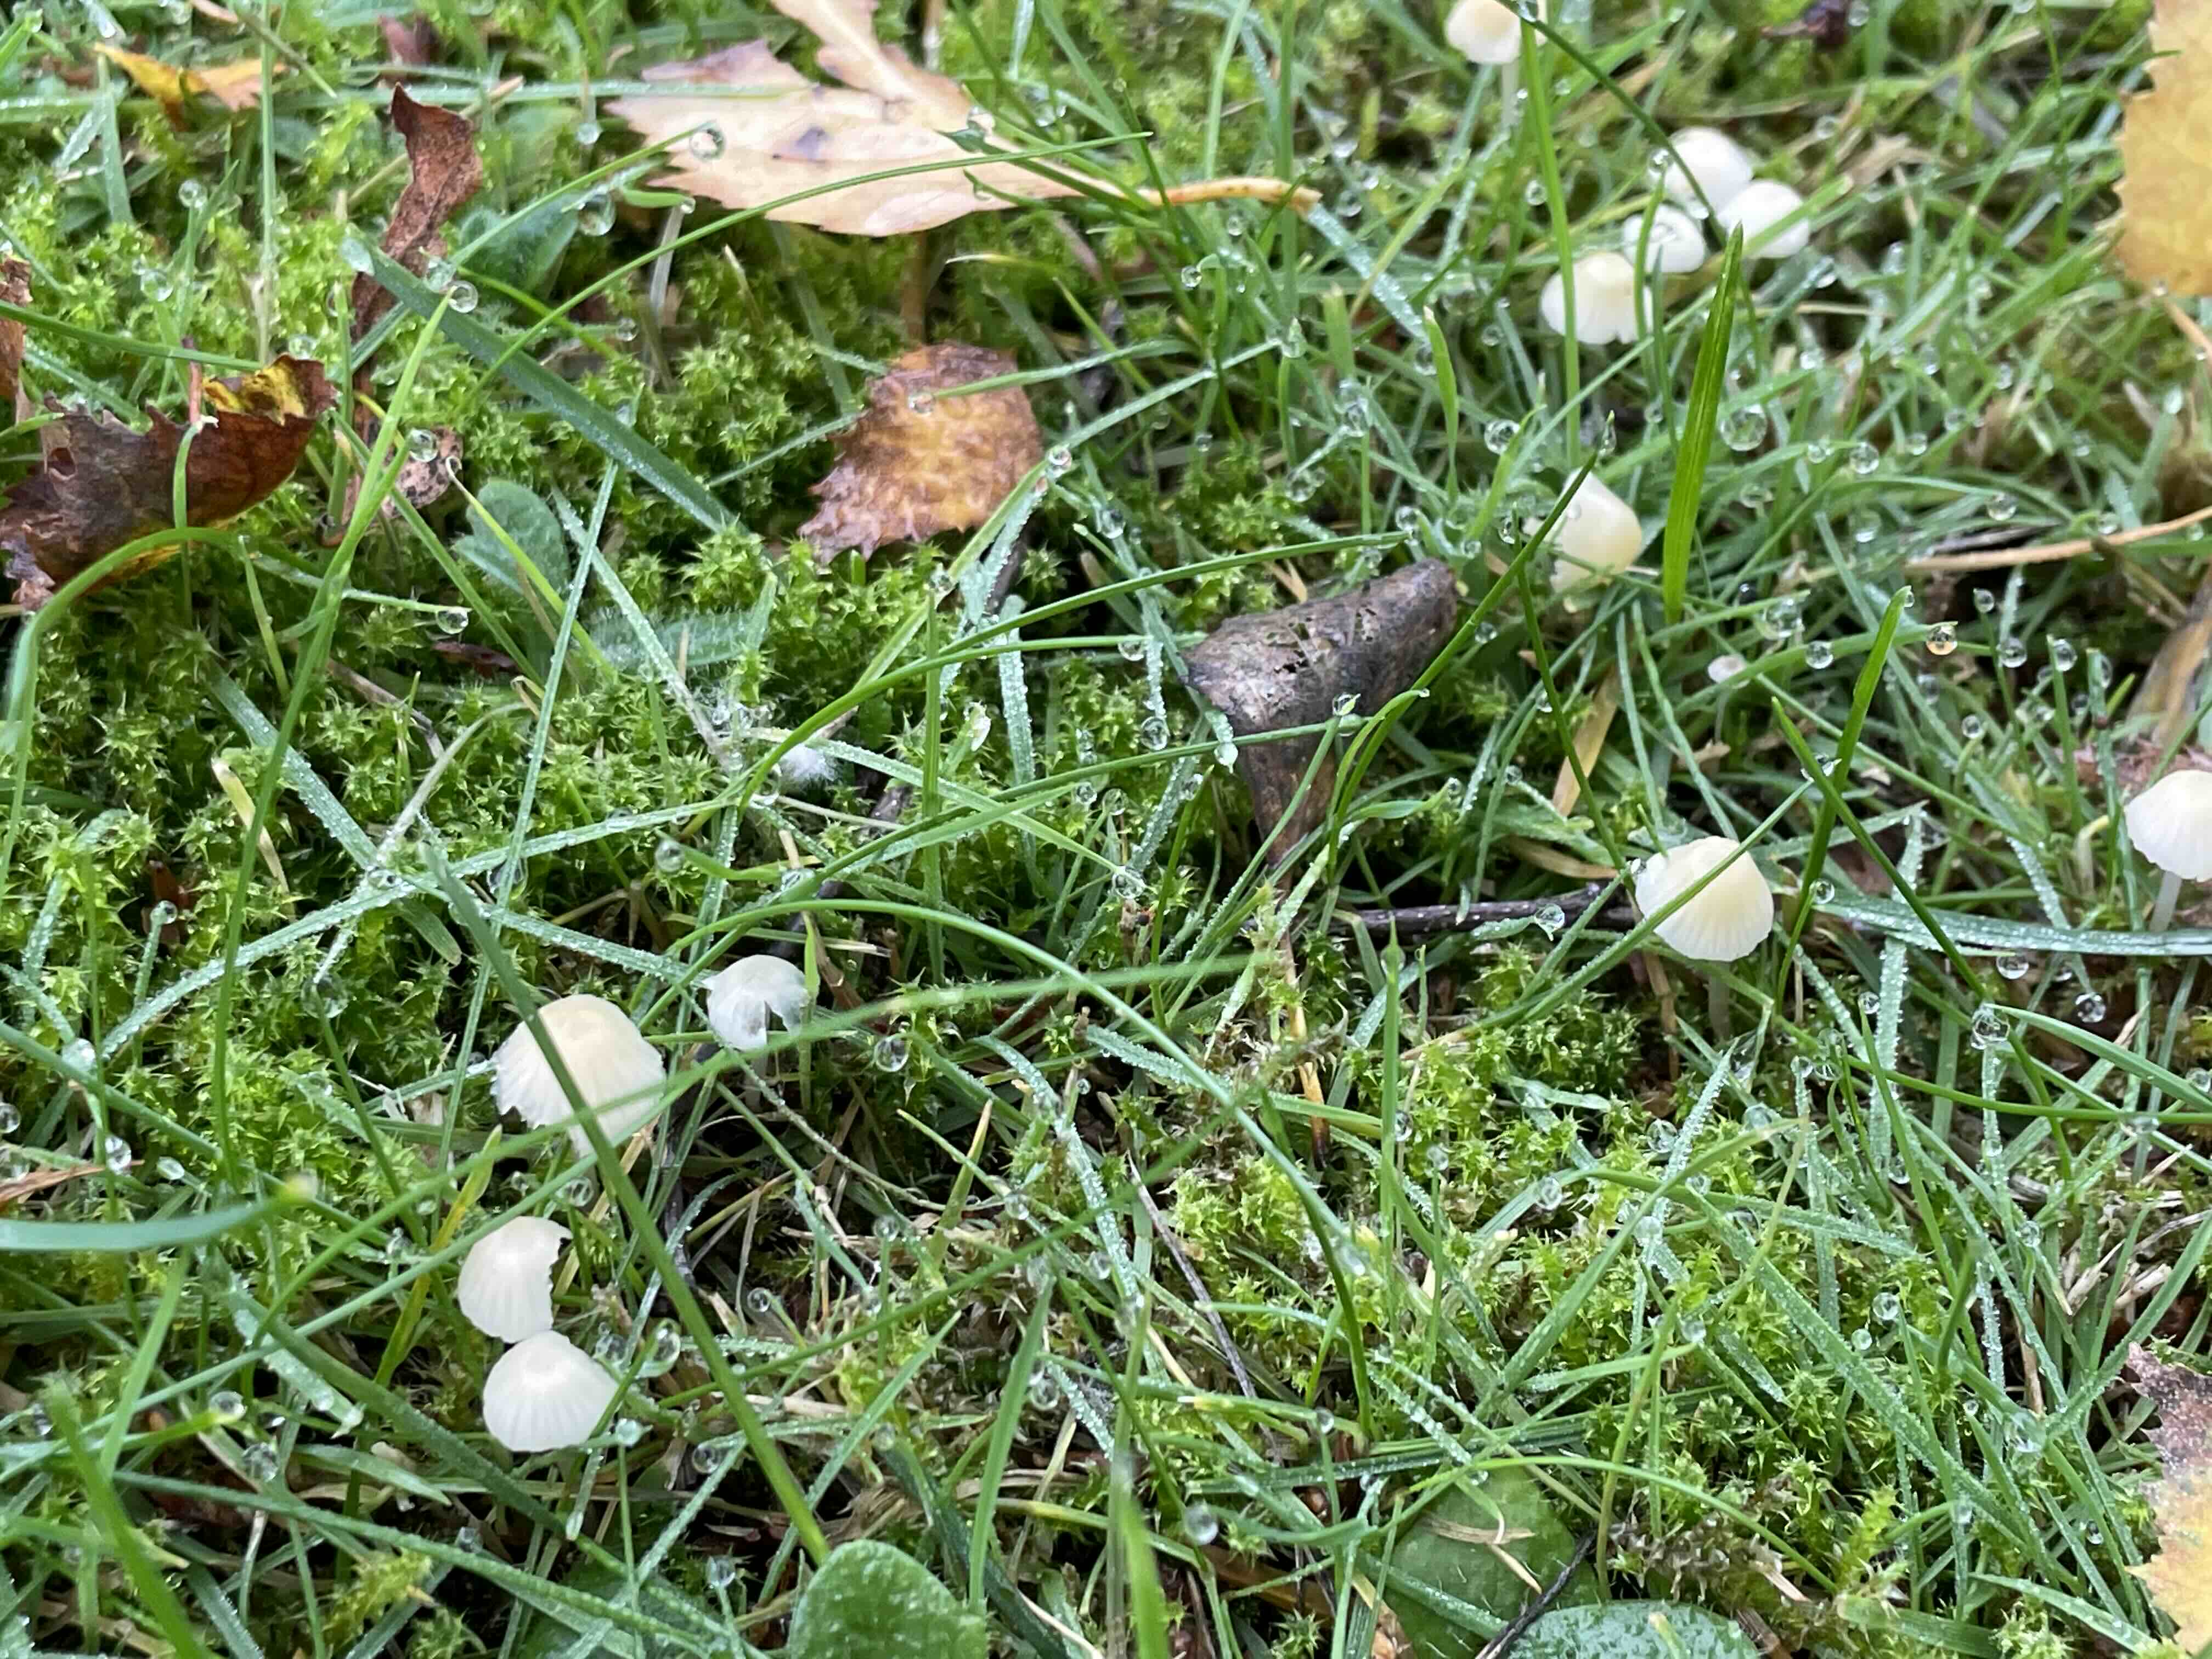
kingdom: Fungi
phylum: Basidiomycota
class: Agaricomycetes
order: Agaricales
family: Mycenaceae
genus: Atheniella
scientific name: Atheniella flavoalba
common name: gulhvid huesvamp
